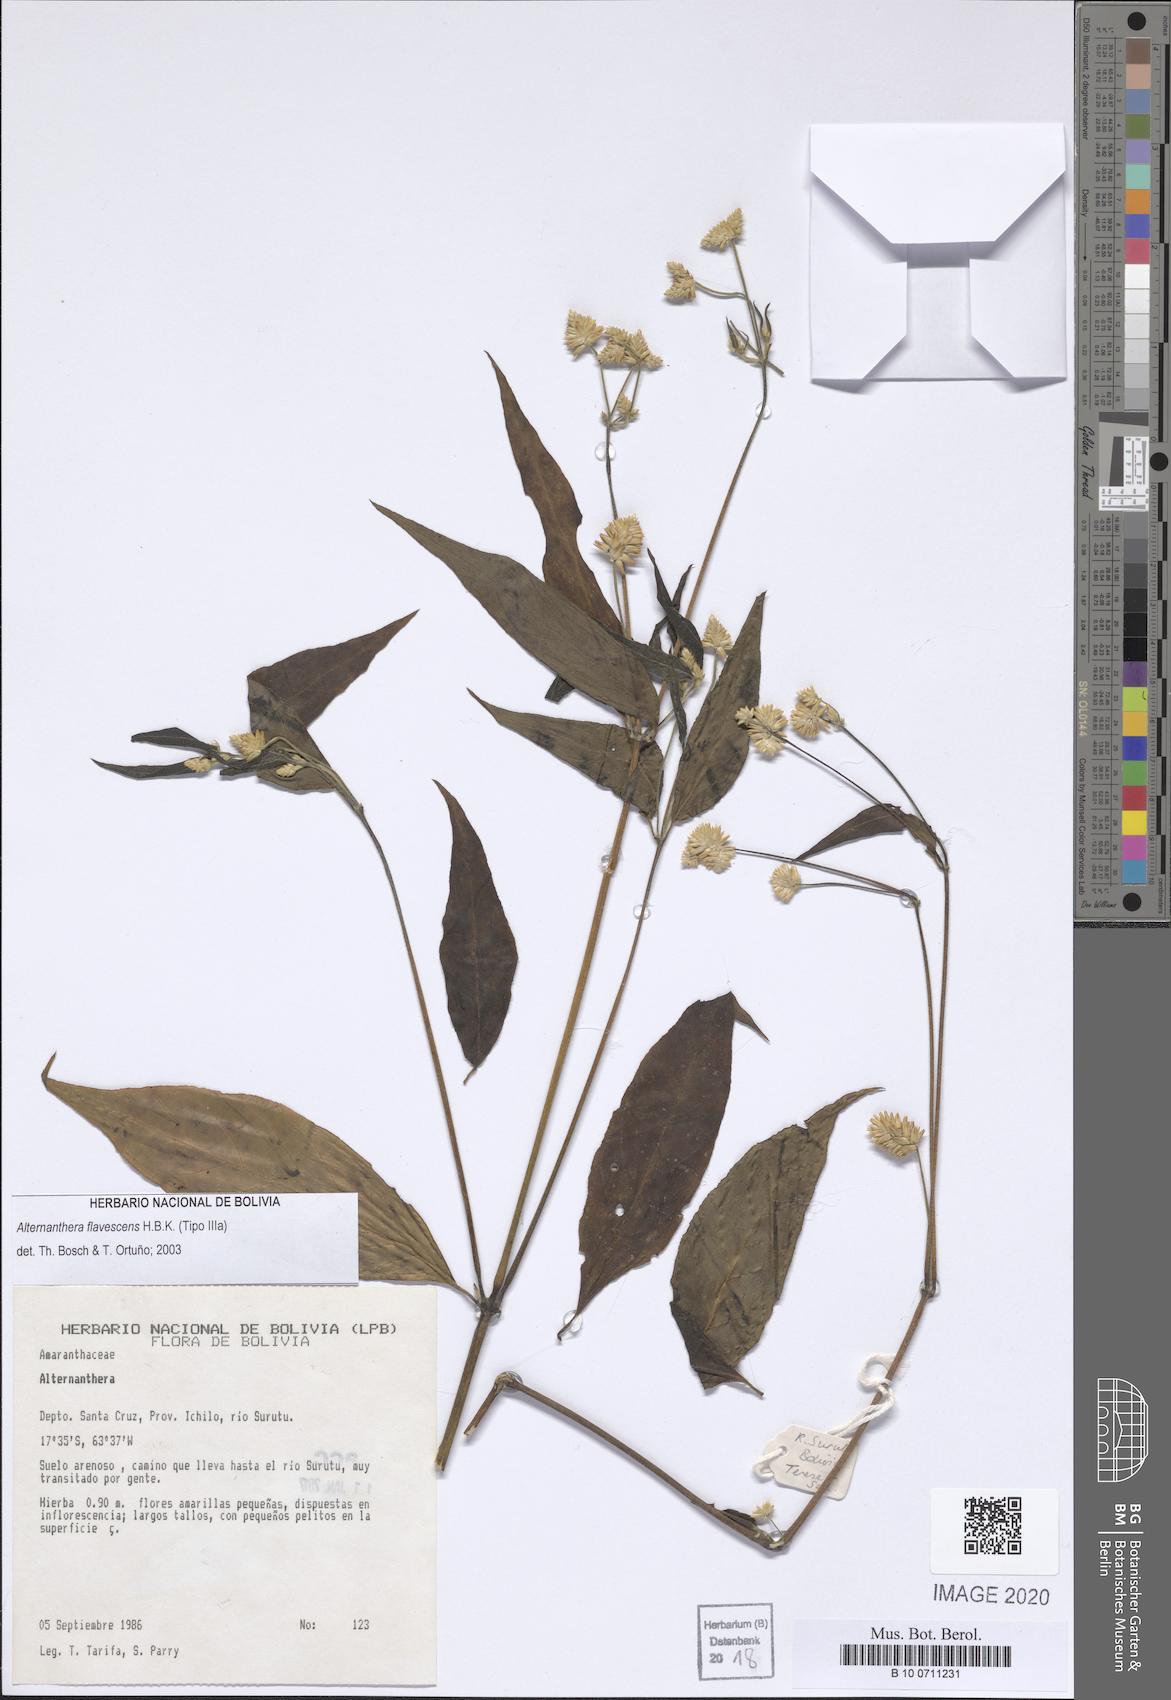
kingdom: Plantae
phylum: Tracheophyta
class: Magnoliopsida
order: Caryophyllales
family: Amaranthaceae
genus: Alternanthera
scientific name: Alternanthera flavescens
